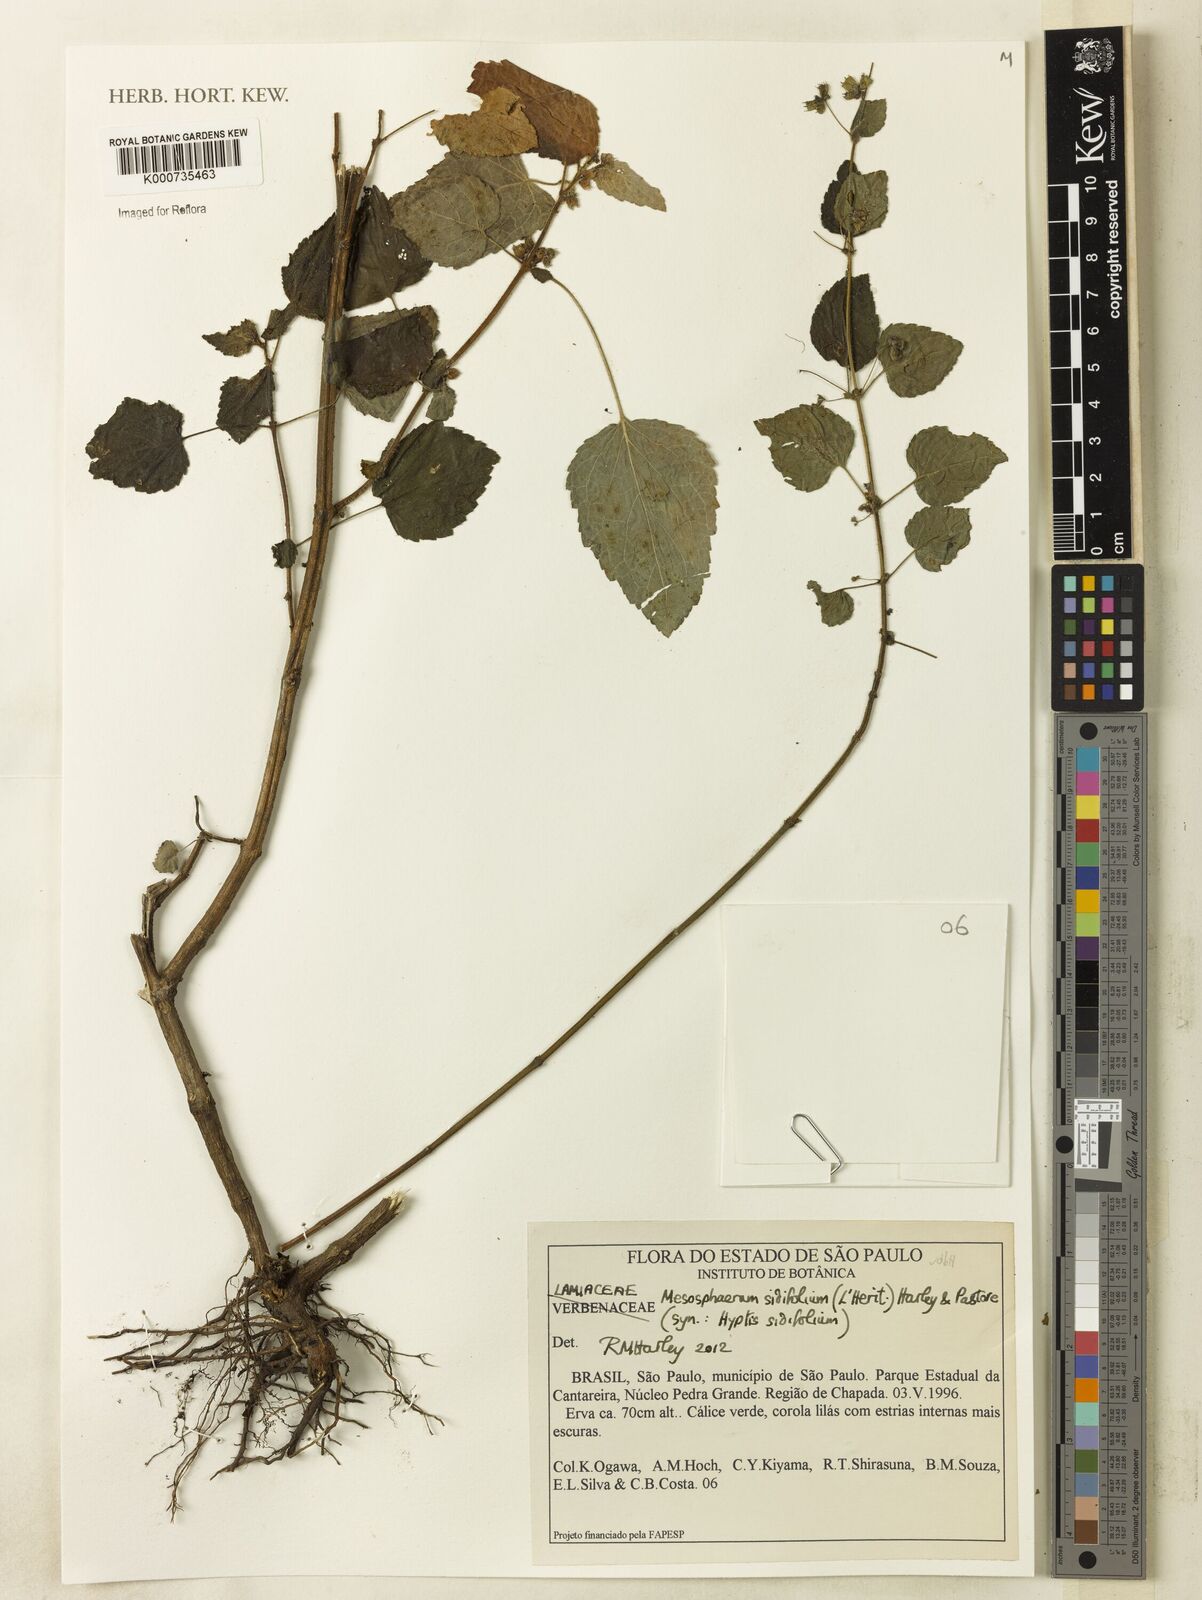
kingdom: Plantae
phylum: Tracheophyta
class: Magnoliopsida
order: Lamiales
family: Lamiaceae
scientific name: Lamiaceae
